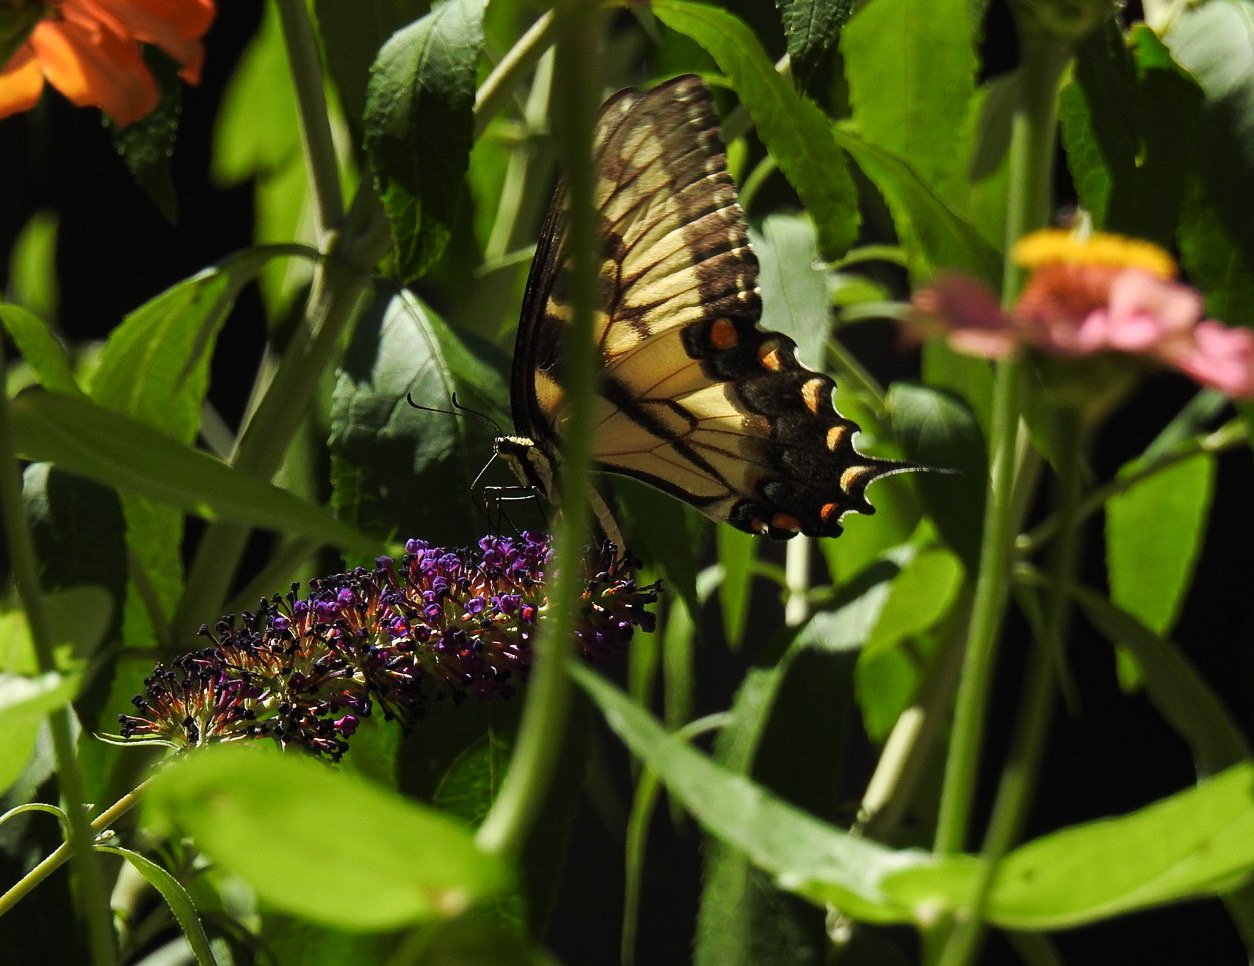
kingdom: Animalia
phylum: Arthropoda
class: Insecta
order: Lepidoptera
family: Papilionidae
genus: Pterourus
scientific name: Pterourus glaucus
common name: Eastern Tiger Swallowtail
